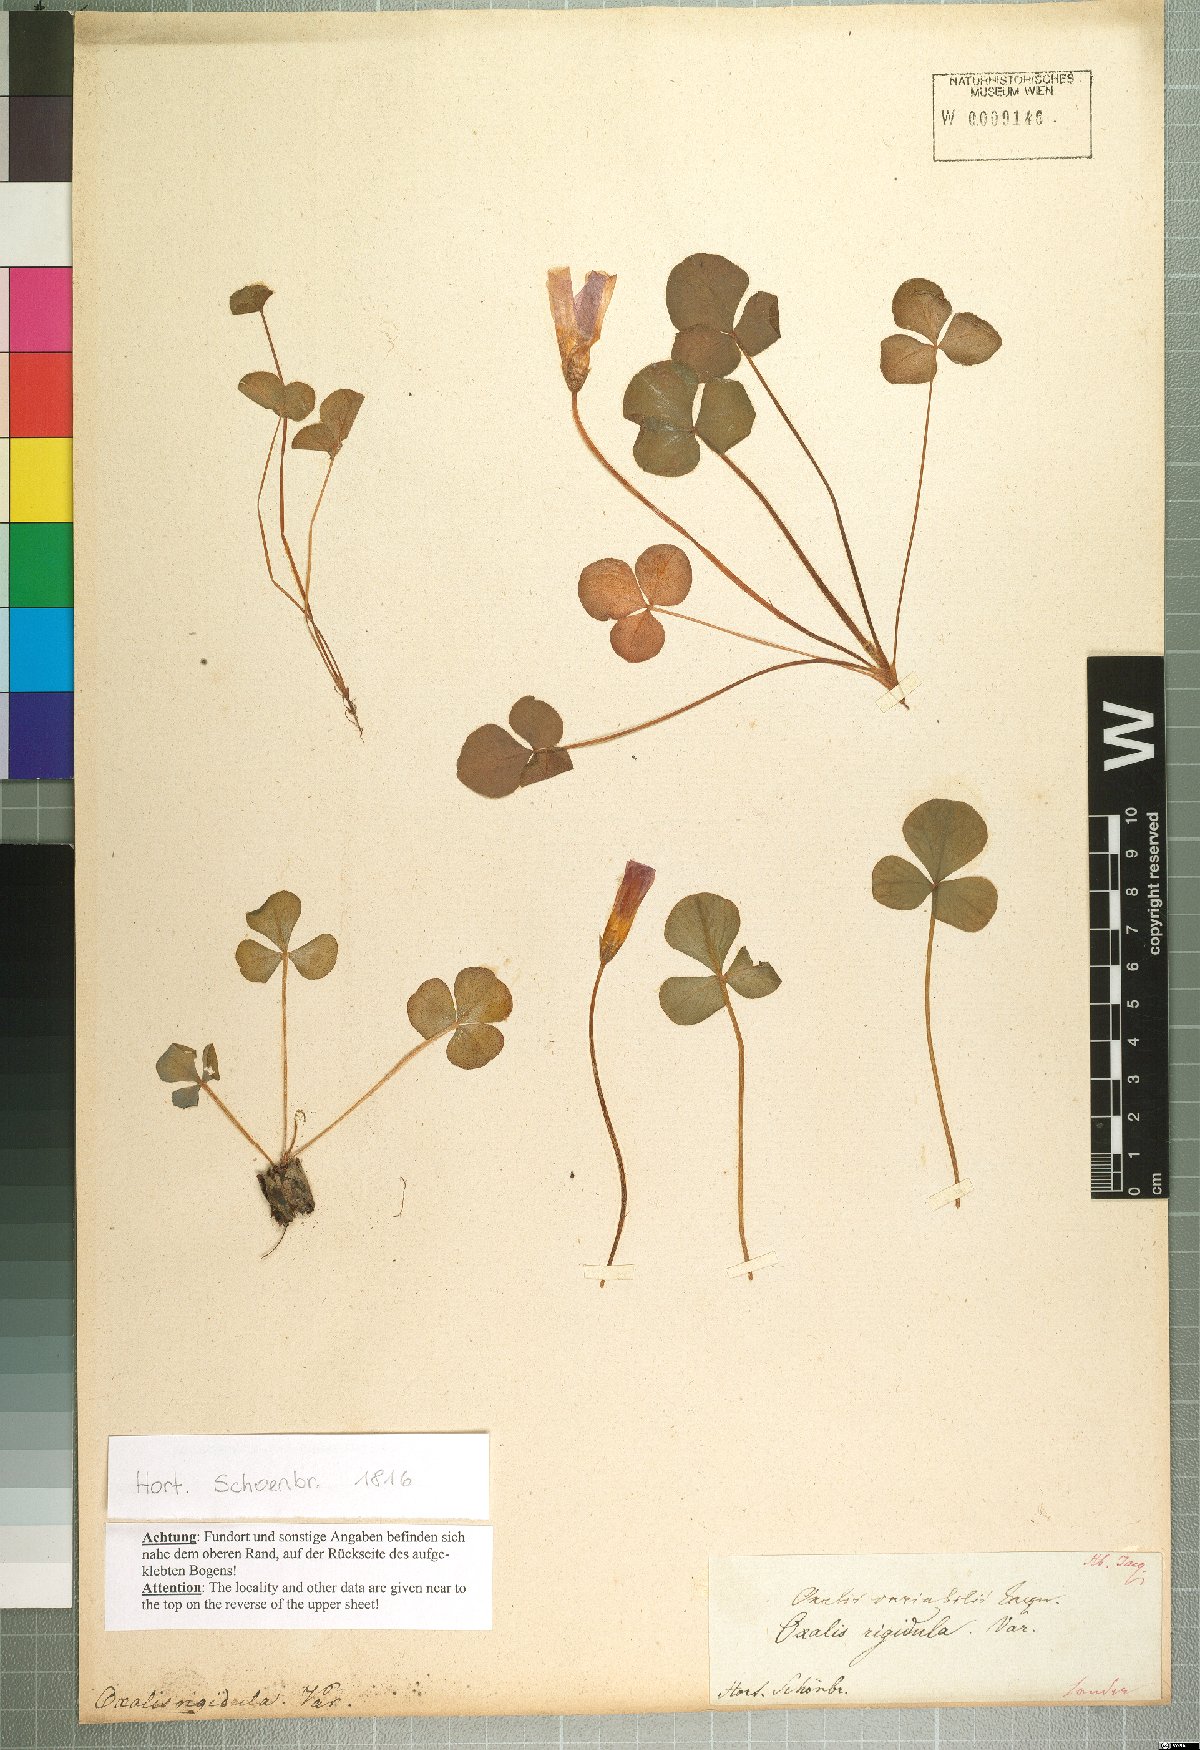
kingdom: Plantae
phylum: Tracheophyta
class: Magnoliopsida
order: Oxalidales
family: Oxalidaceae
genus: Oxalis
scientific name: Oxalis purpurea
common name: Purple woodsorrel
